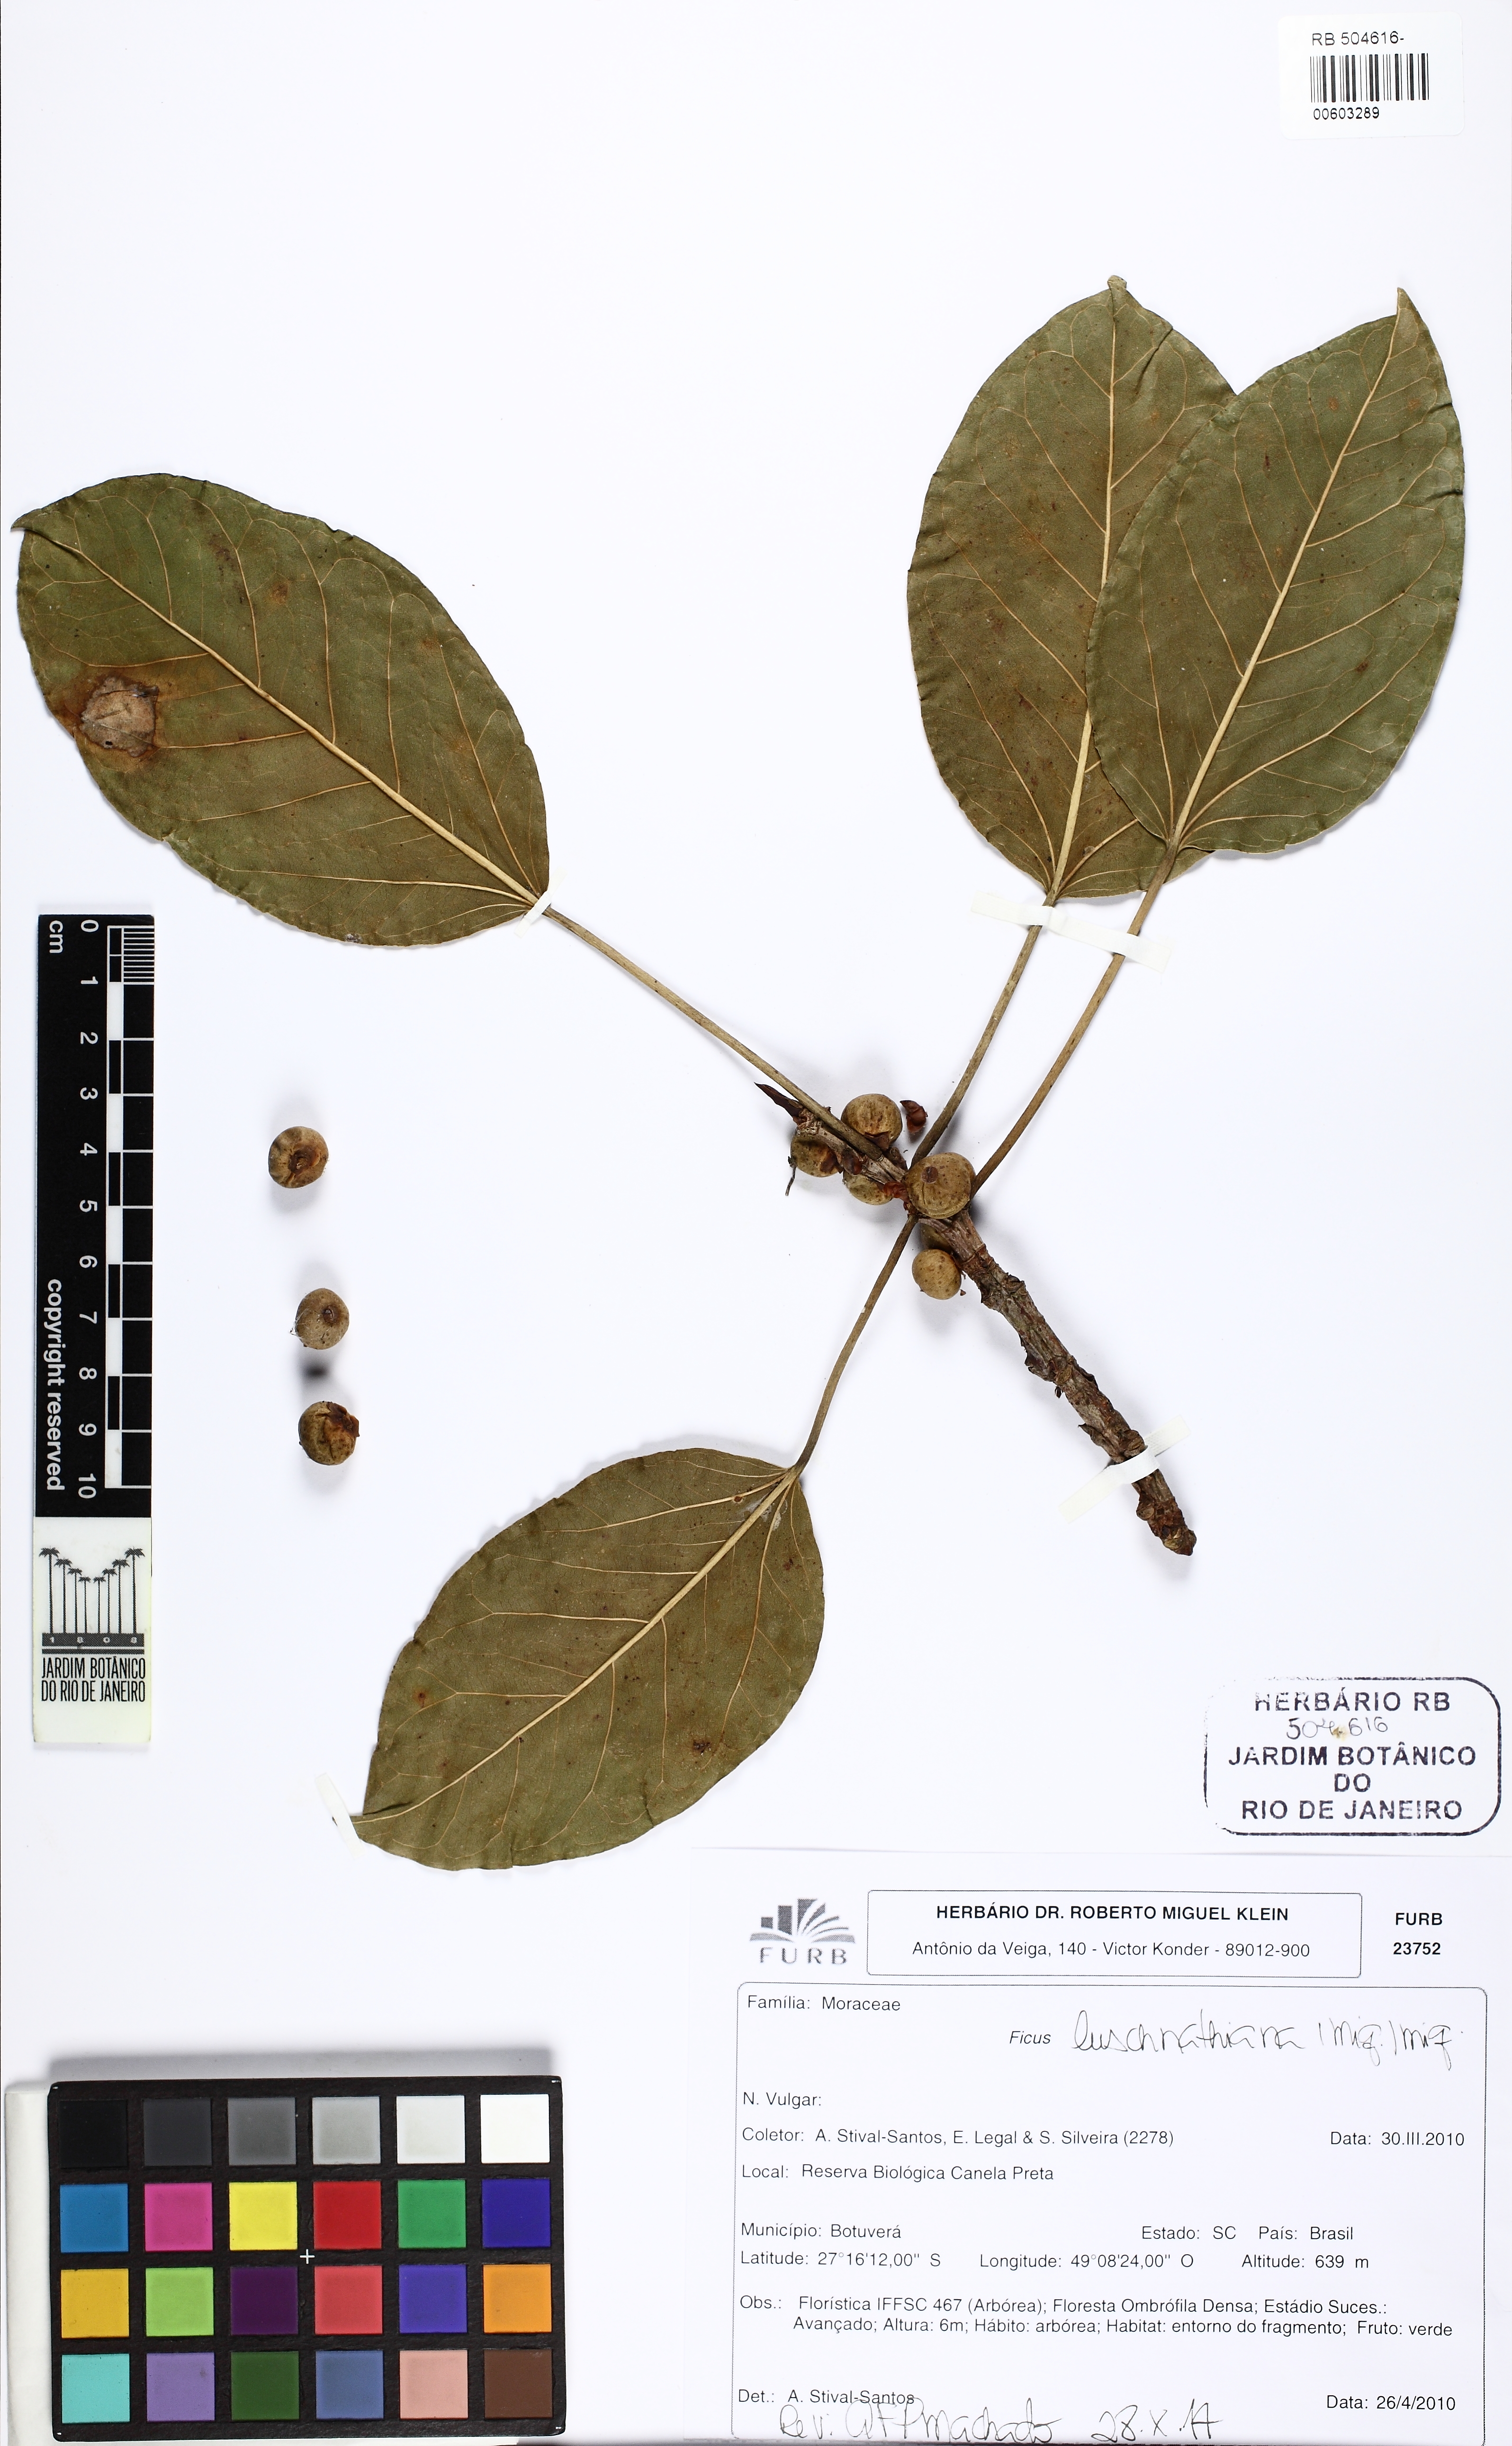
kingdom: Plantae
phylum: Tracheophyta
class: Magnoliopsida
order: Rosales
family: Moraceae
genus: Ficus
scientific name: Ficus luschnathiana
